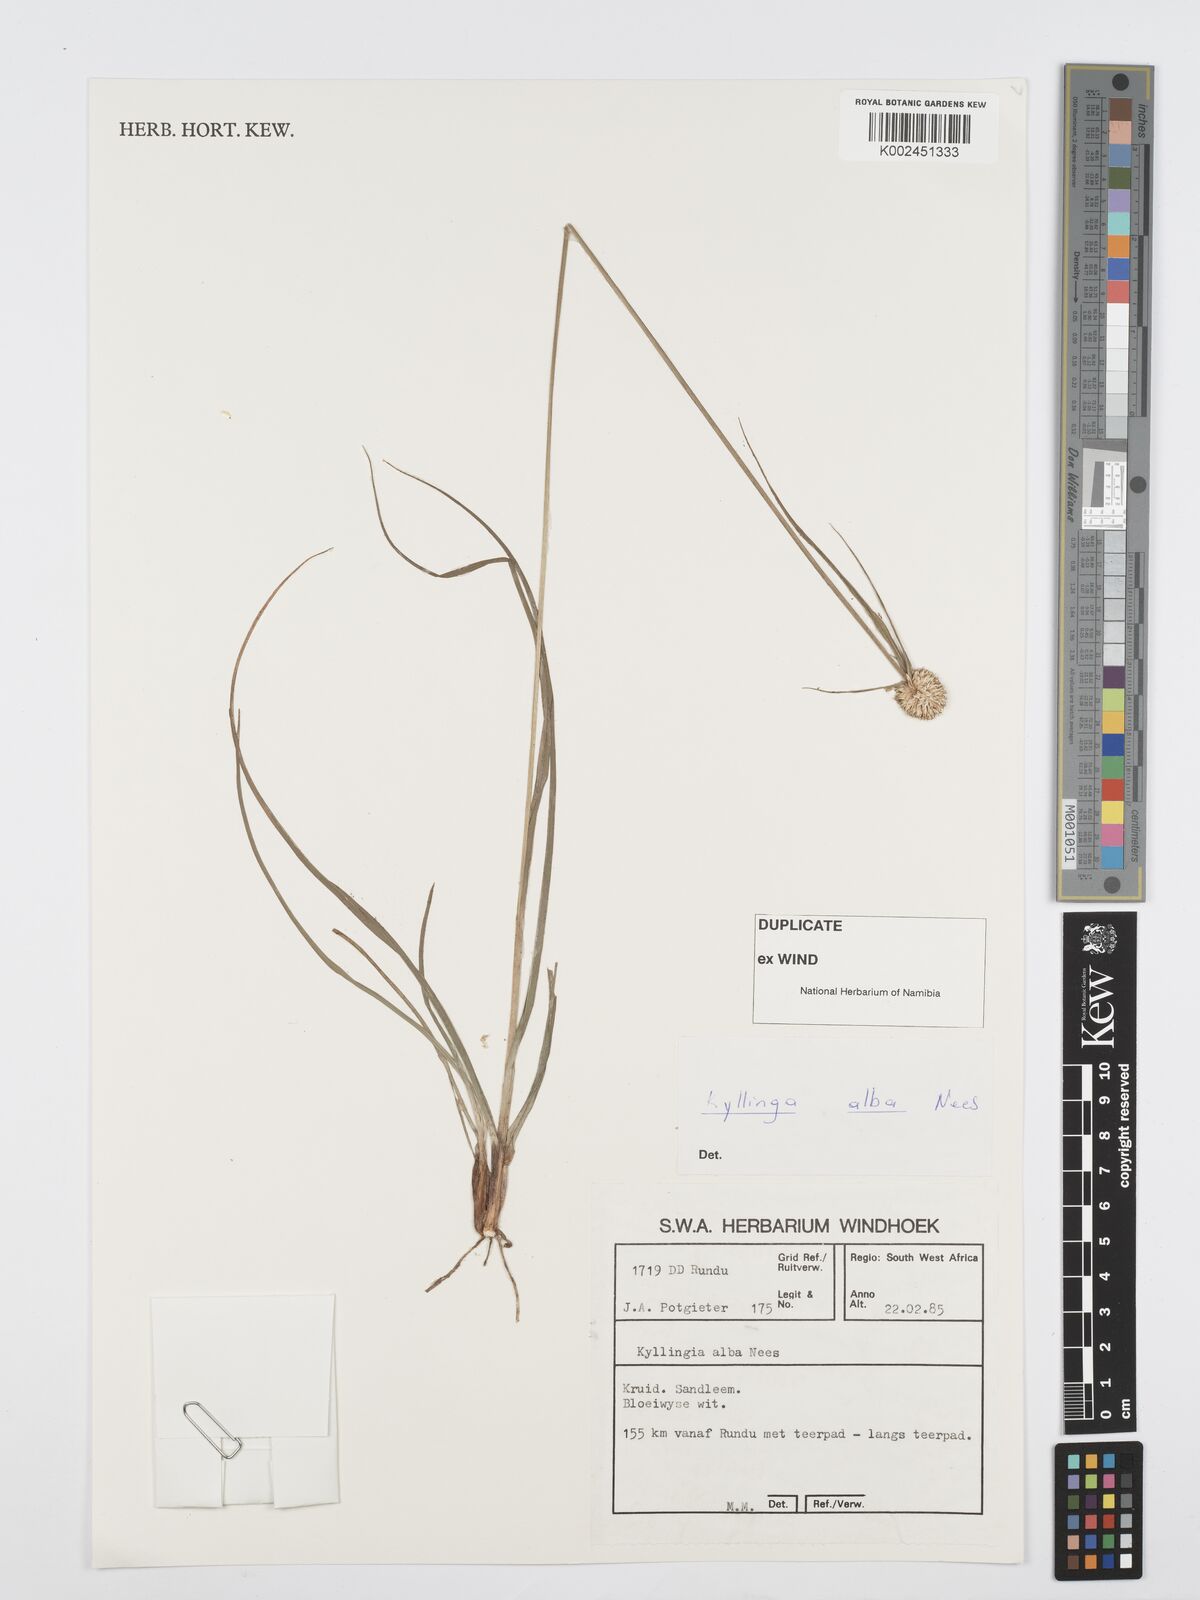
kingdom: Plantae
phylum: Tracheophyta
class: Liliopsida
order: Poales
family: Cyperaceae
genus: Cyperus
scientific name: Cyperus
